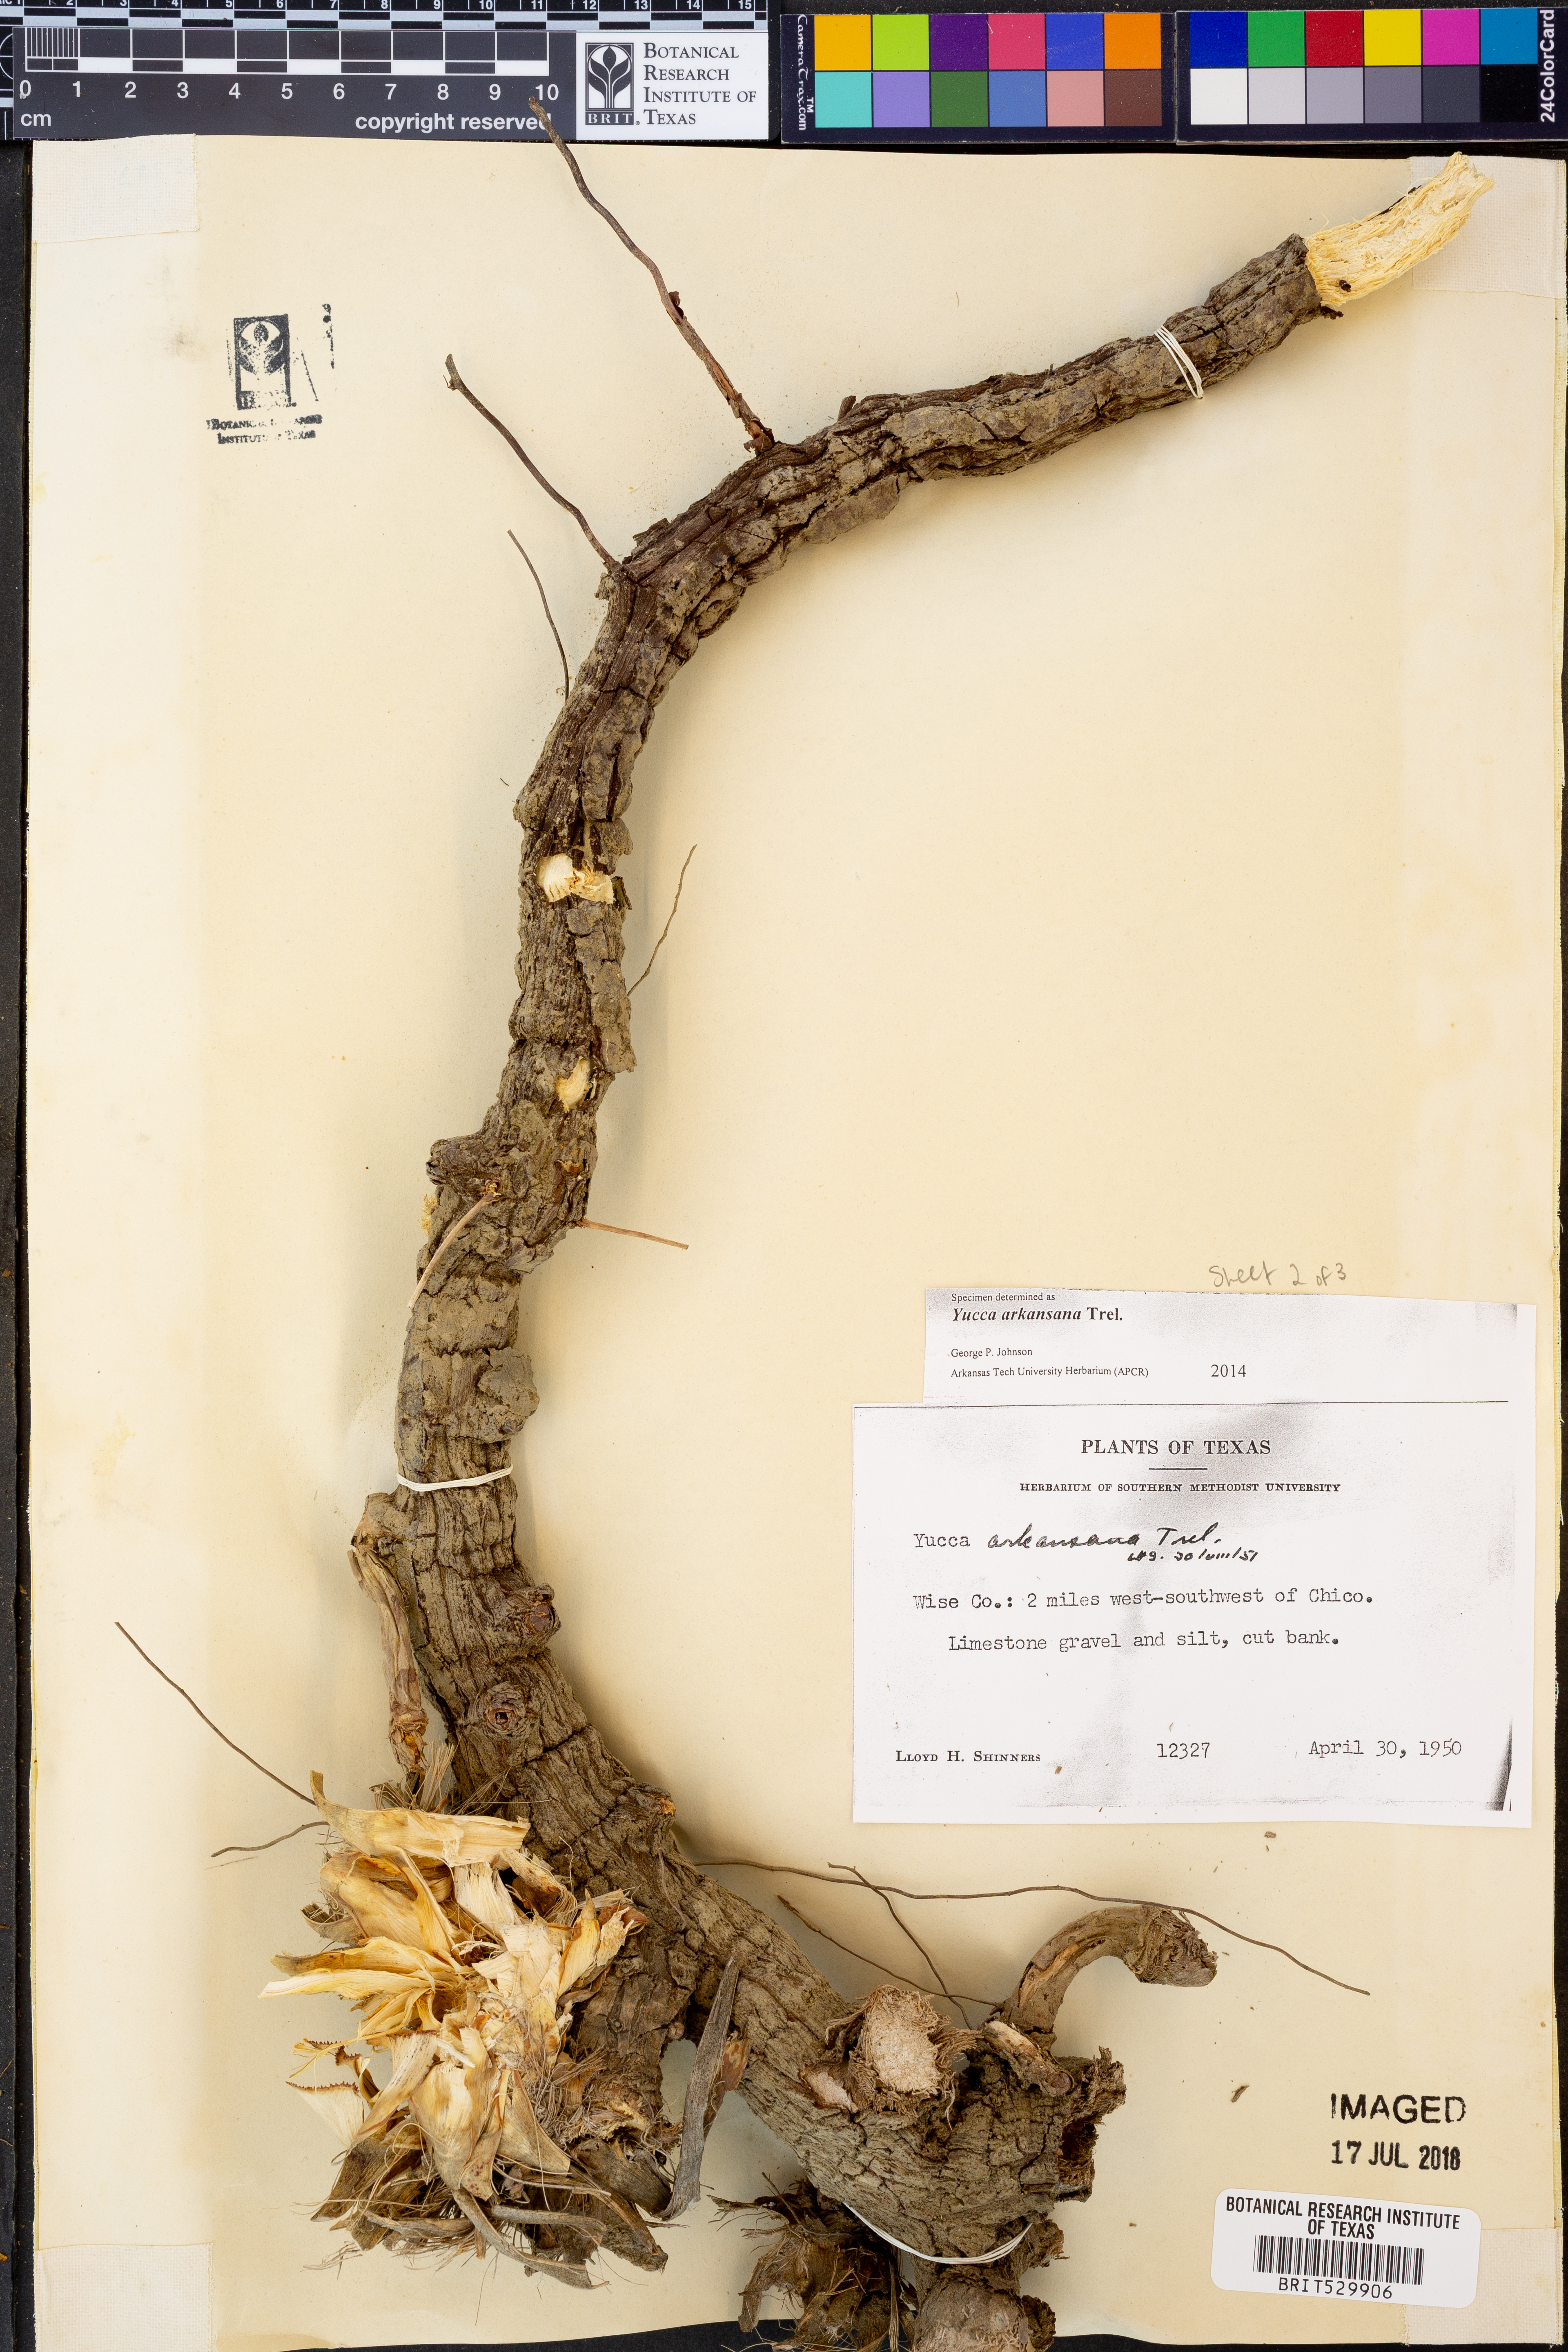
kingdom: Plantae
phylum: Tracheophyta
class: Liliopsida
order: Asparagales
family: Asparagaceae
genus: Yucca
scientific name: Yucca arkansana
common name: Arkansas yucca
